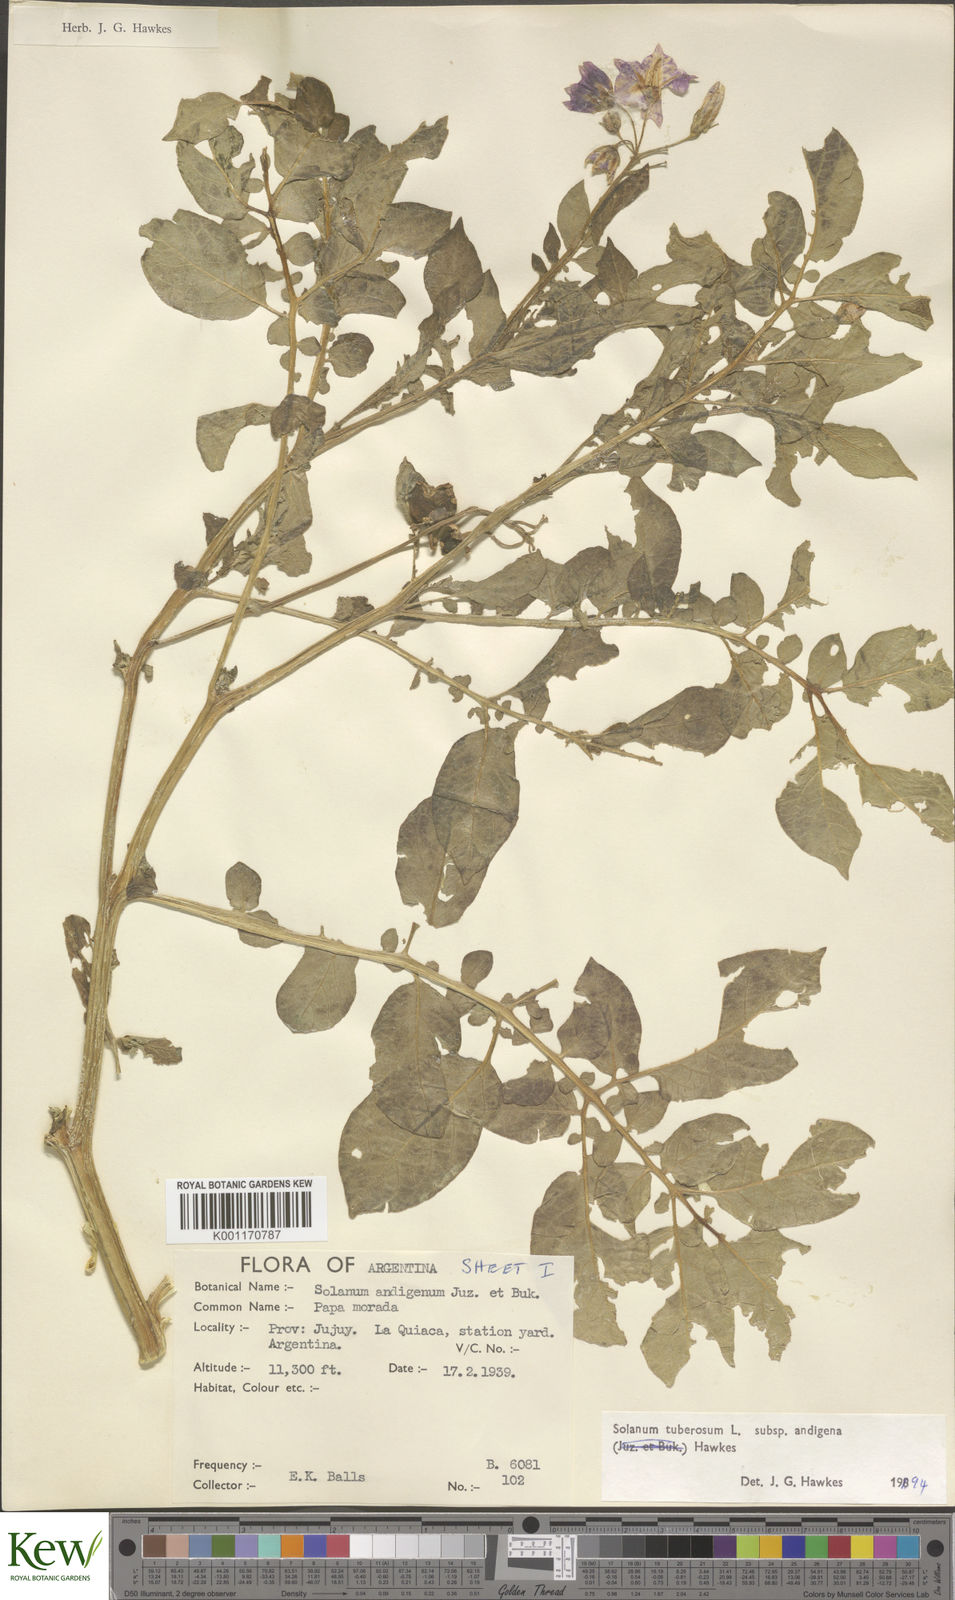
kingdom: Plantae
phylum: Tracheophyta
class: Magnoliopsida
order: Solanales
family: Solanaceae
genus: Solanum
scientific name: Solanum tuberosum
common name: Potato
